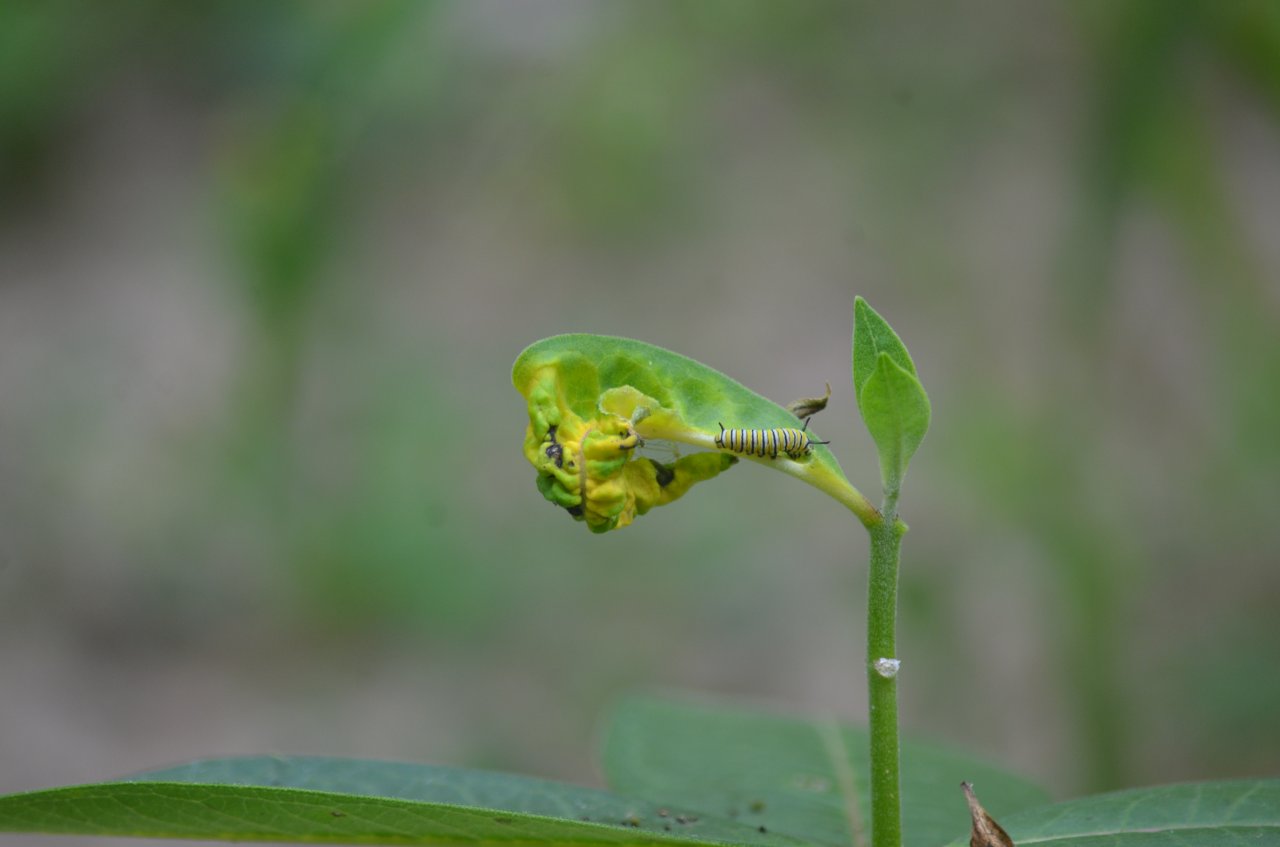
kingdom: Animalia
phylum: Arthropoda
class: Insecta
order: Lepidoptera
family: Nymphalidae
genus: Danaus
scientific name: Danaus plexippus
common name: Monarch
